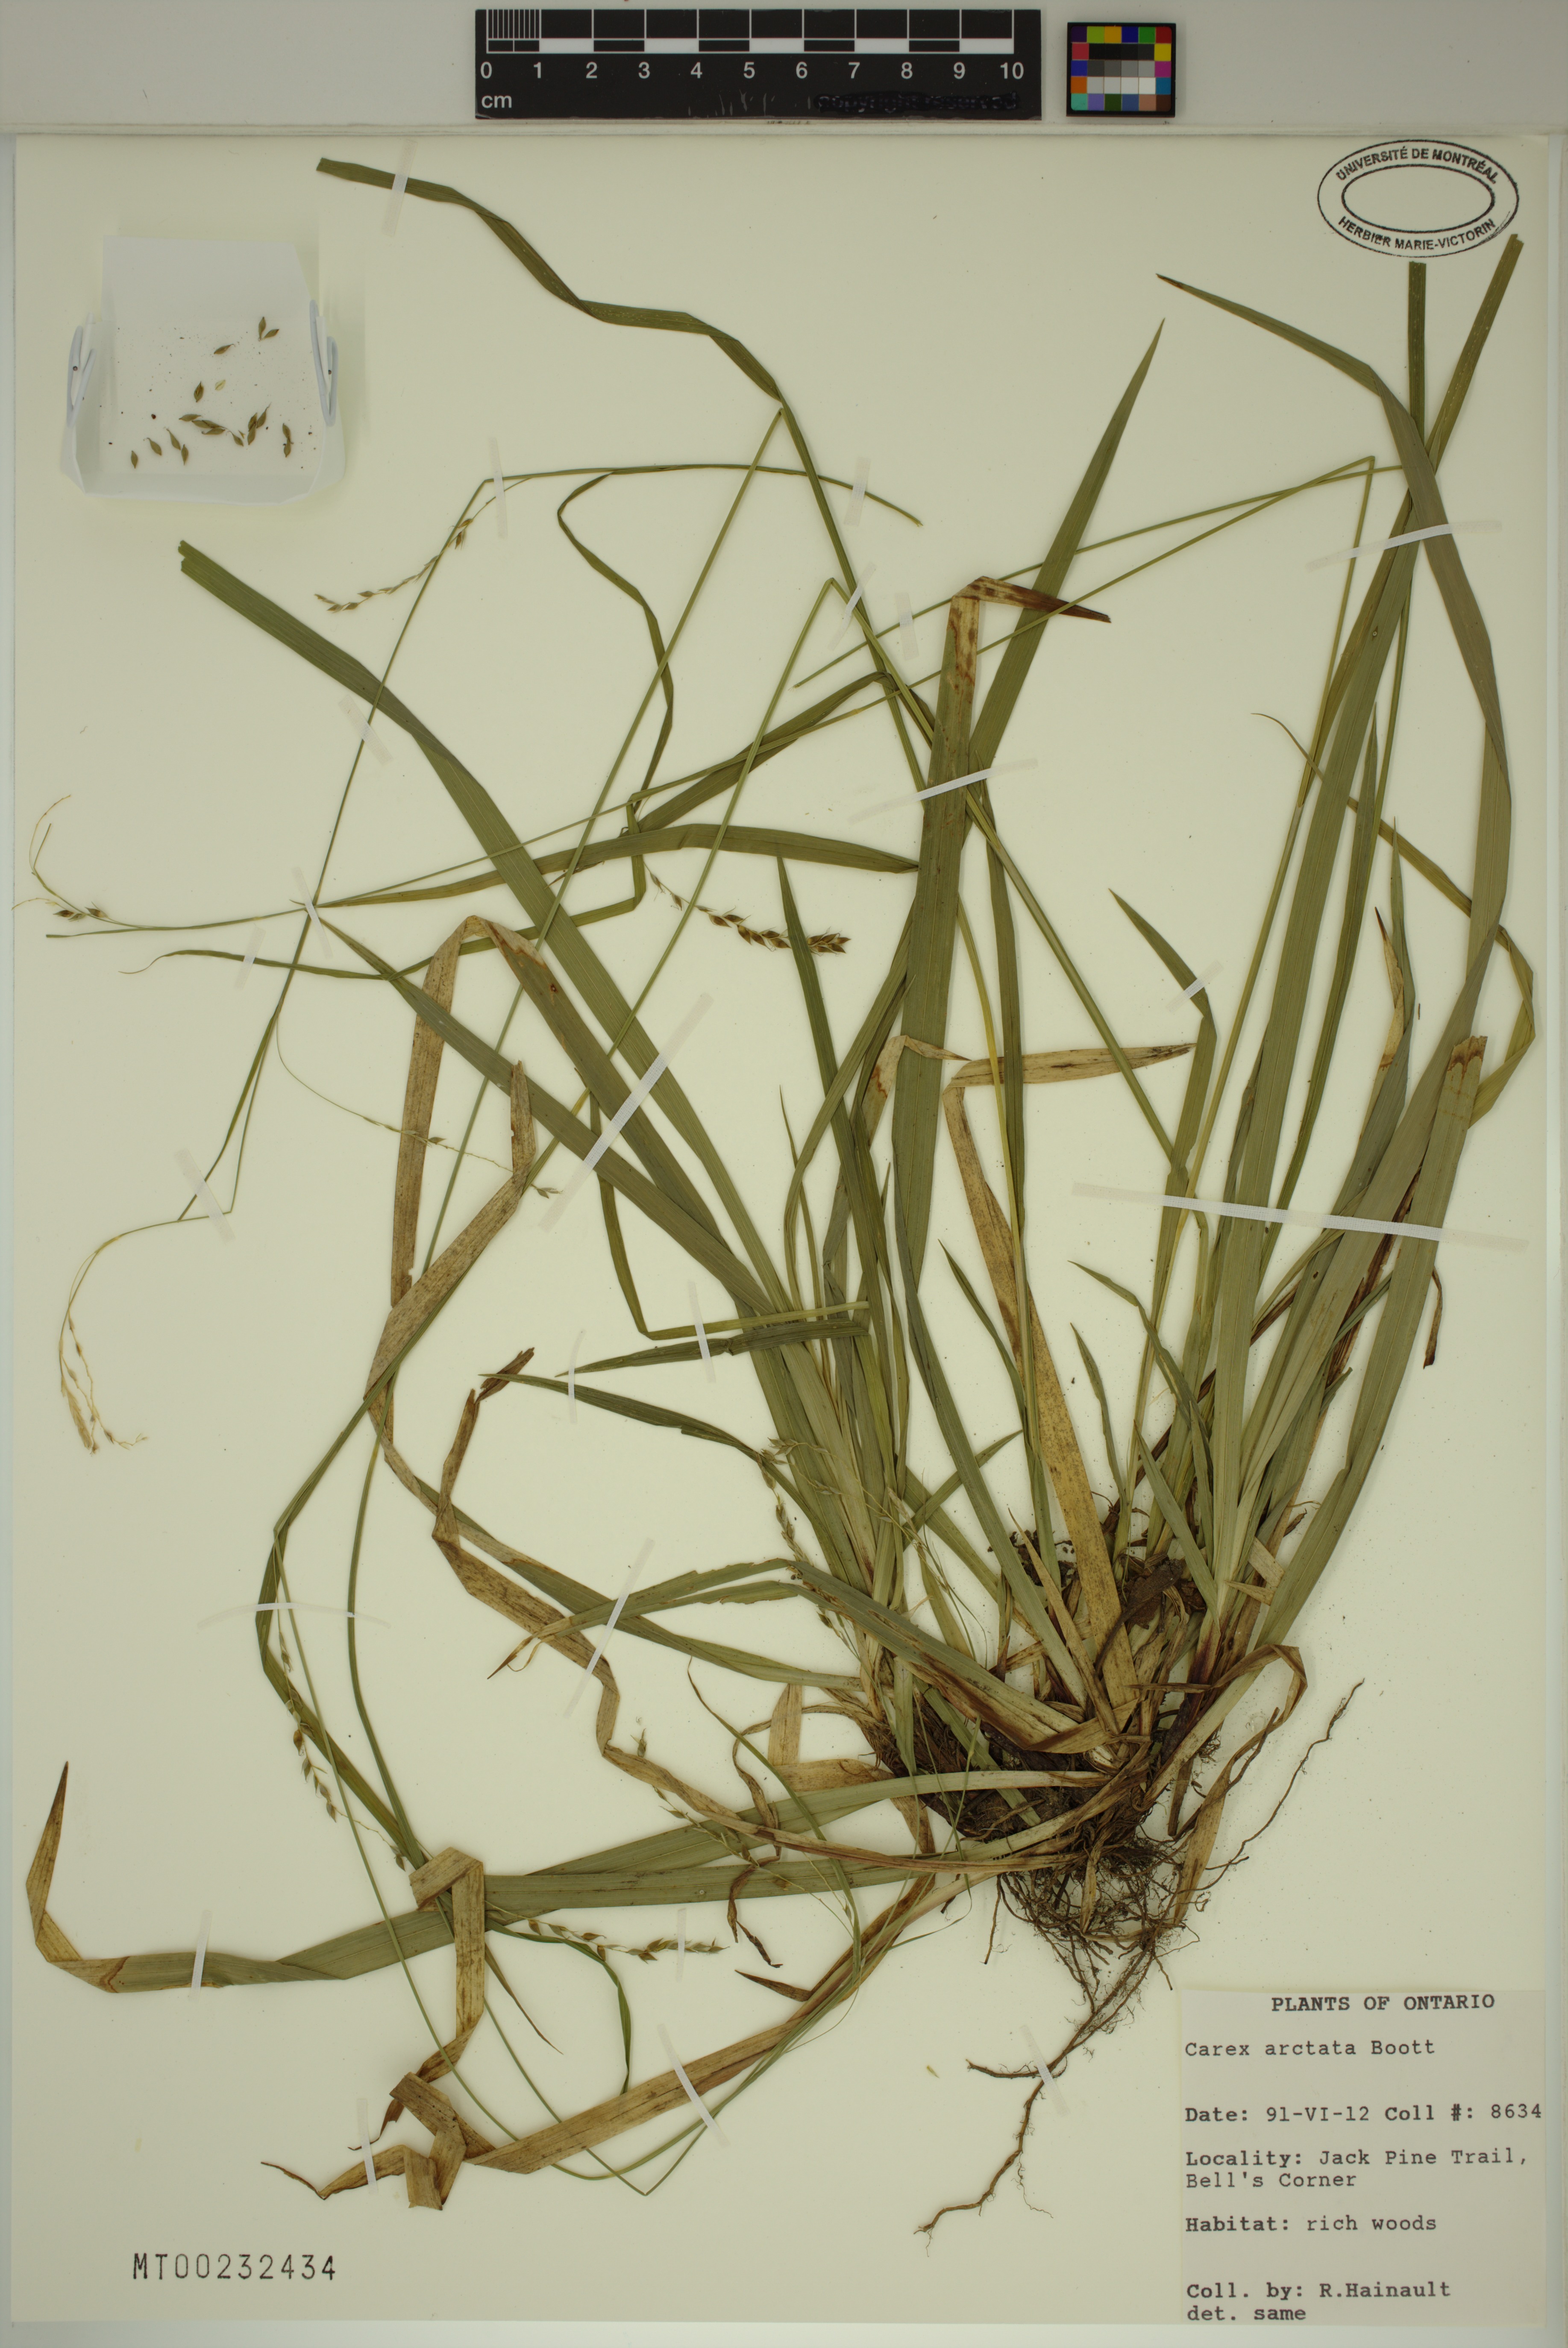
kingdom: Plantae
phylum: Tracheophyta
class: Liliopsida
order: Poales
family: Cyperaceae
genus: Carex
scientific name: Carex arctata
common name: Black sedge
